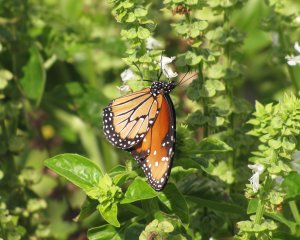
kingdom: Animalia
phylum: Arthropoda
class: Insecta
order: Lepidoptera
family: Nymphalidae
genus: Danaus
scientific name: Danaus gilippus
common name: Queen
